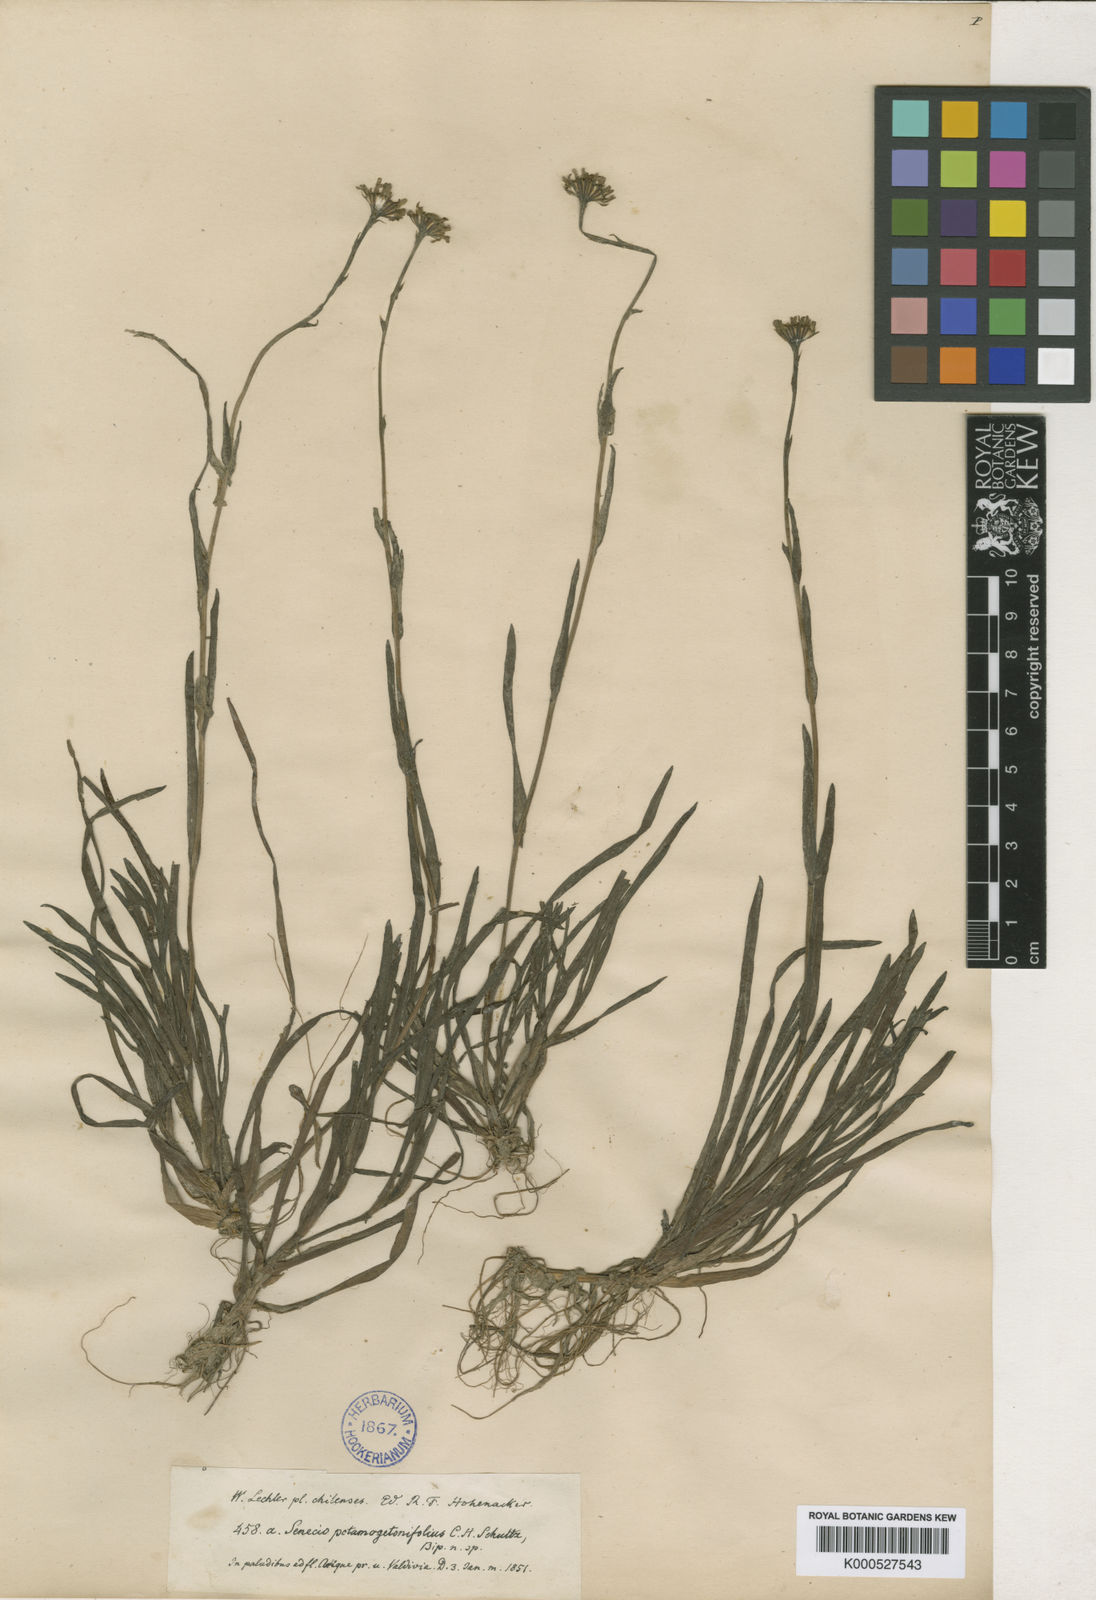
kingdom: Plantae
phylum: Tracheophyta
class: Magnoliopsida
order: Asterales
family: Asteraceae
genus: Senecio
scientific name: Senecio
